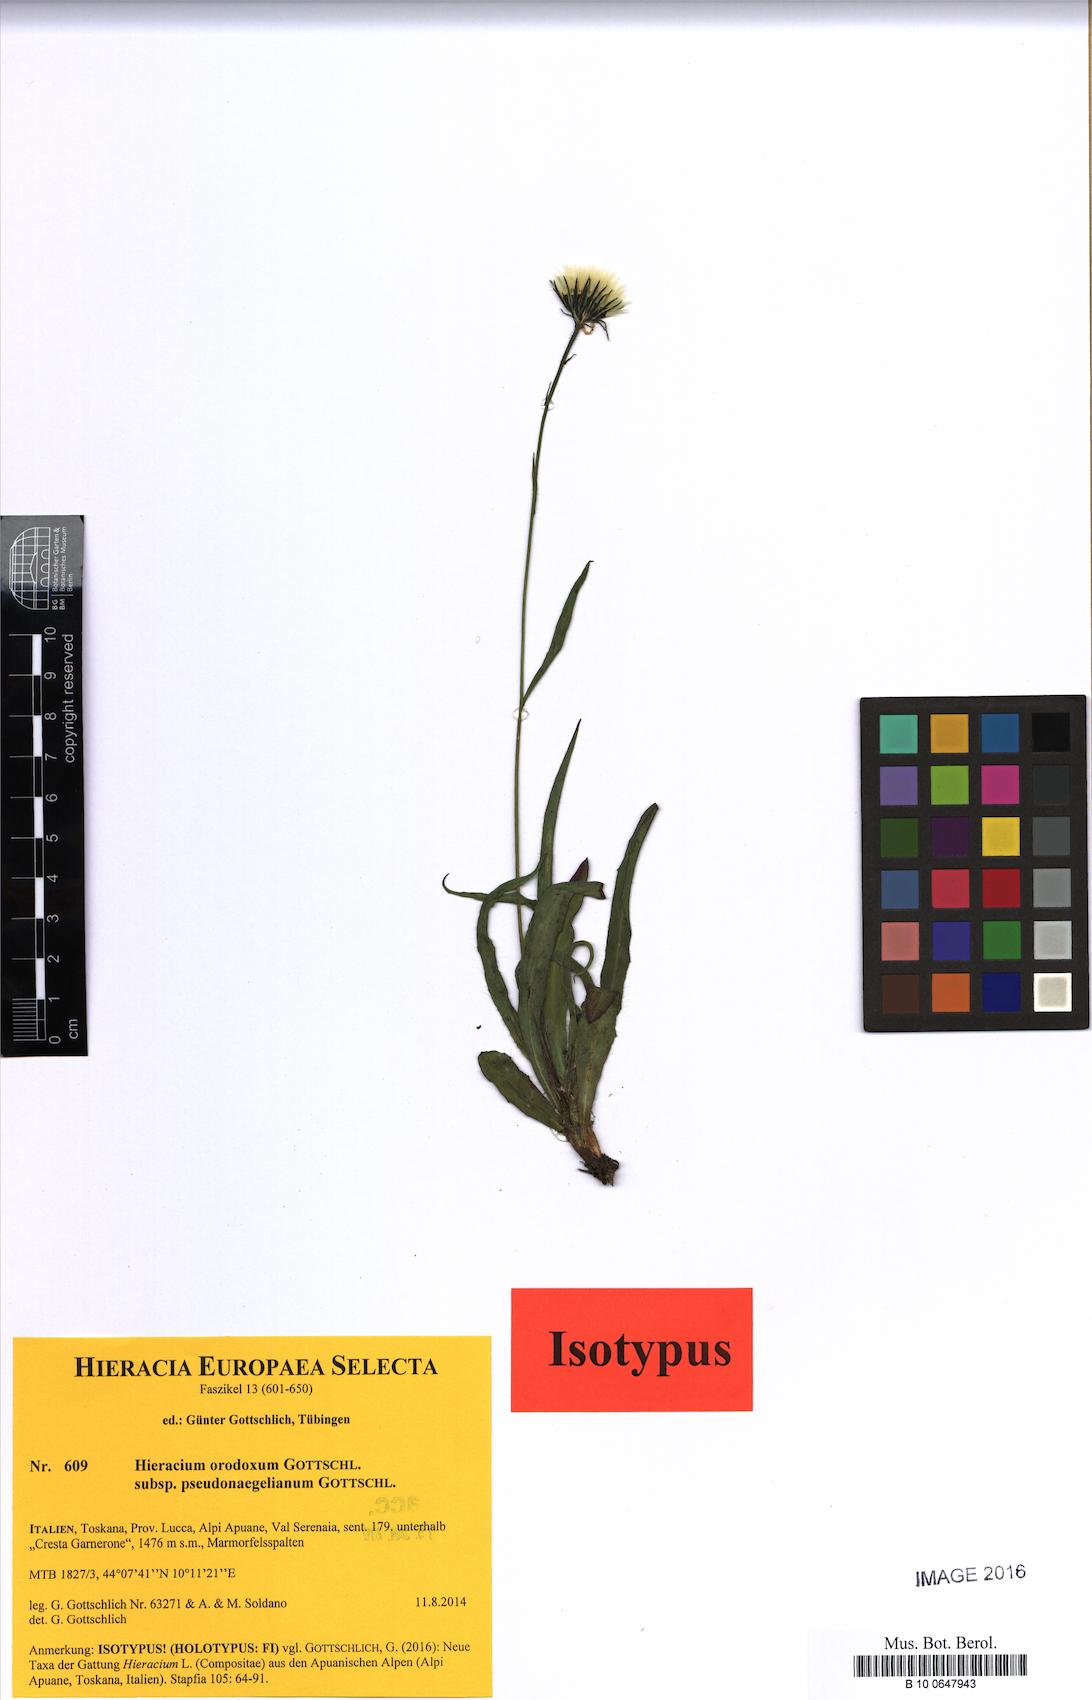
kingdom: Plantae
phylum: Tracheophyta
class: Magnoliopsida
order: Asterales
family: Asteraceae
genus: Hieracium
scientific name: Hieracium orodoxum
